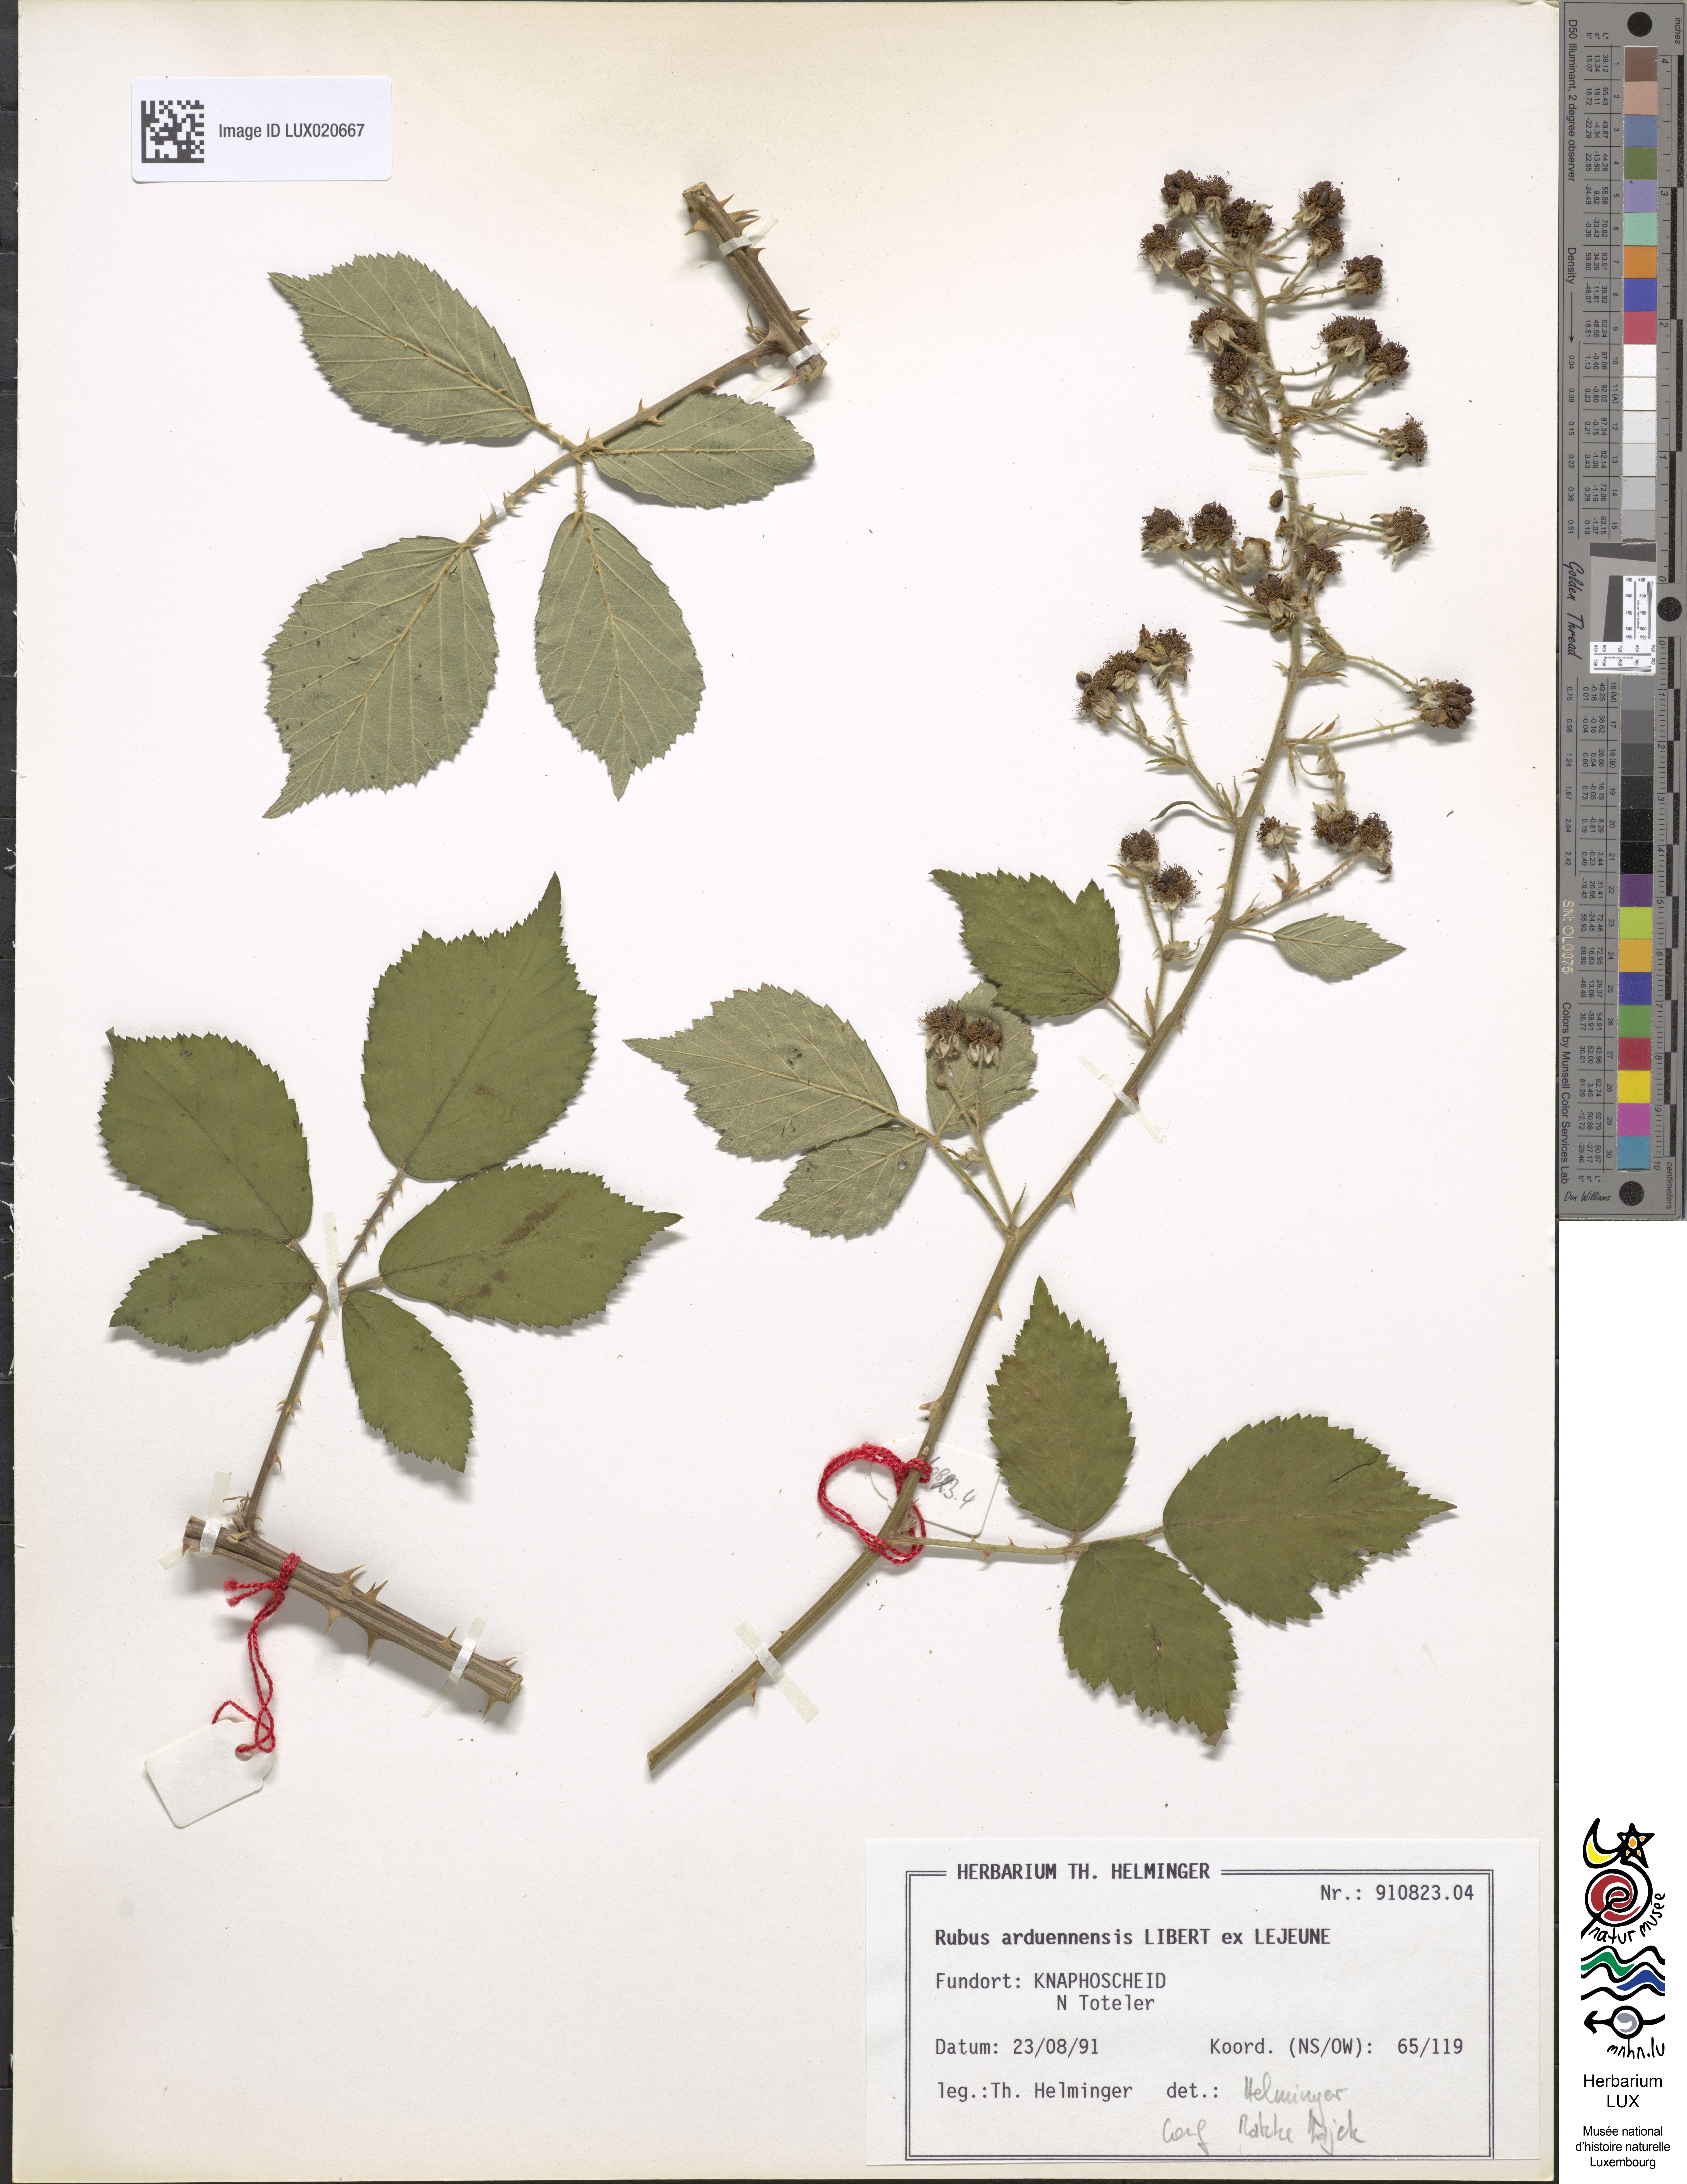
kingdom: Plantae
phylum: Tracheophyta
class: Magnoliopsida
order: Rosales
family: Rosaceae
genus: Rubus
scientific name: Rubus arduennensis
